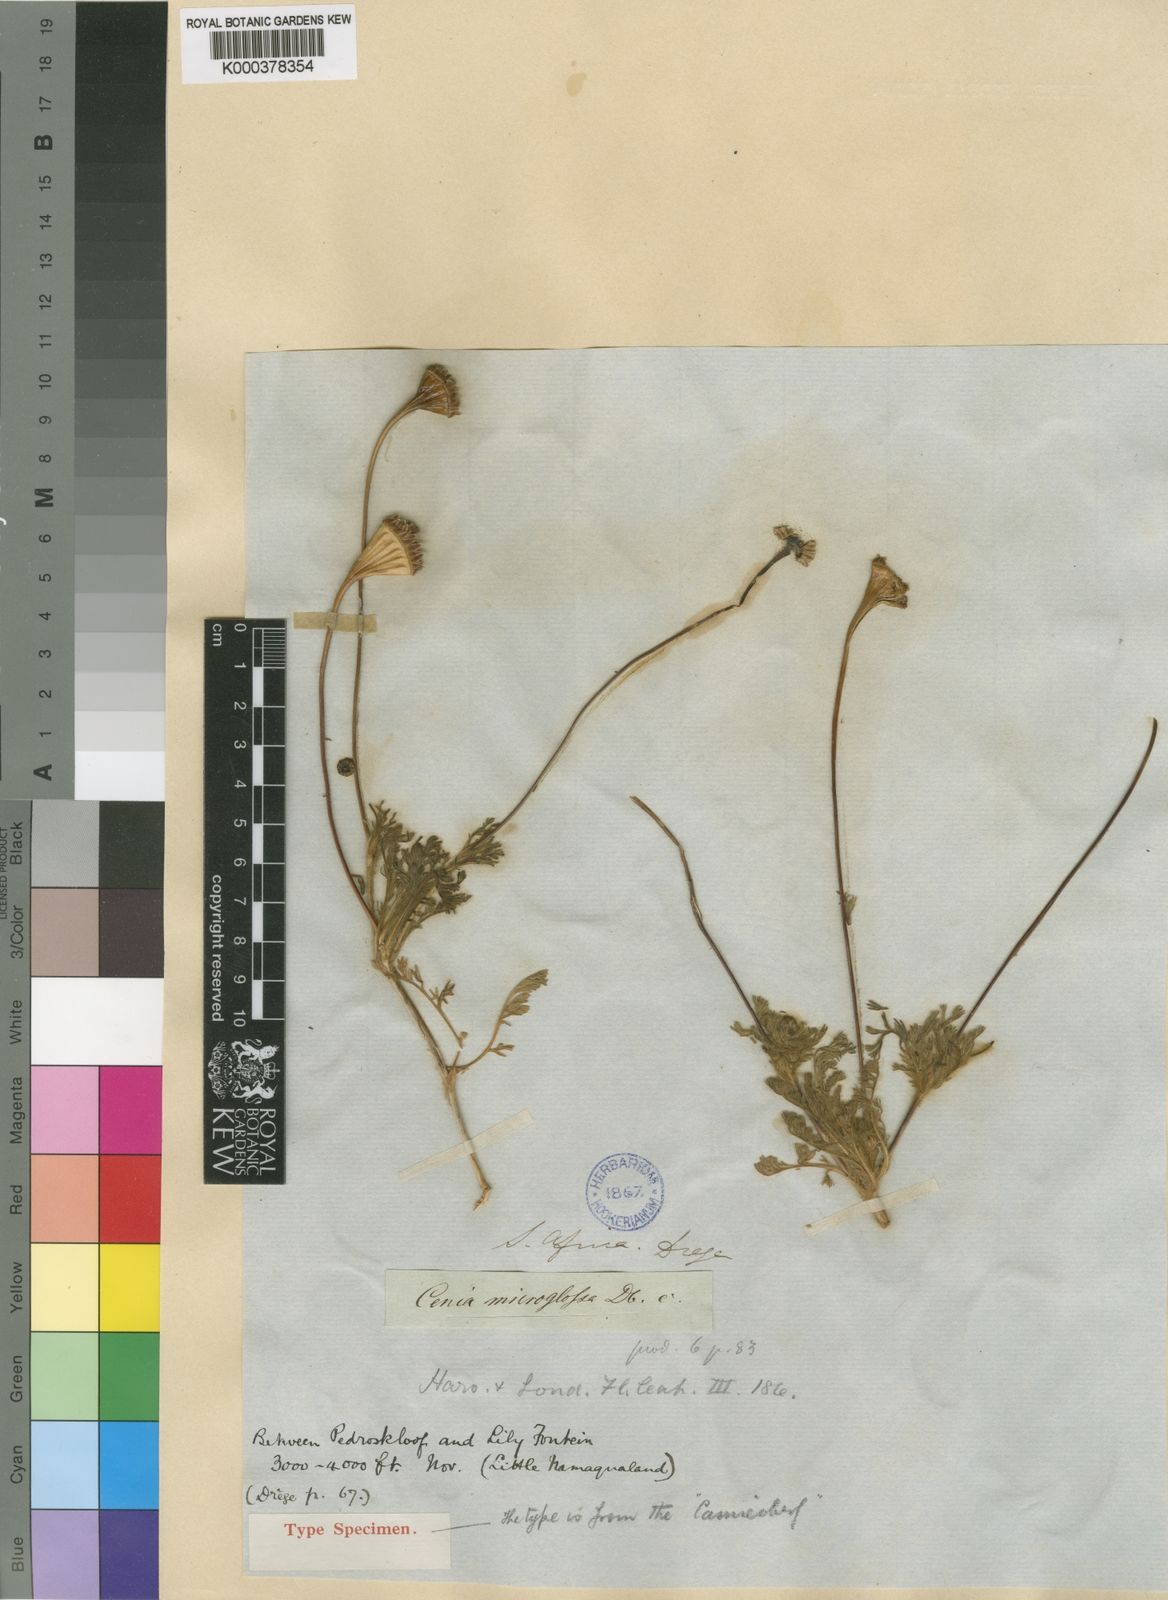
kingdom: Plantae
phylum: Tracheophyta
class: Magnoliopsida
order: Asterales
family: Asteraceae
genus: Cotula
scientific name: Cotula microglossa
